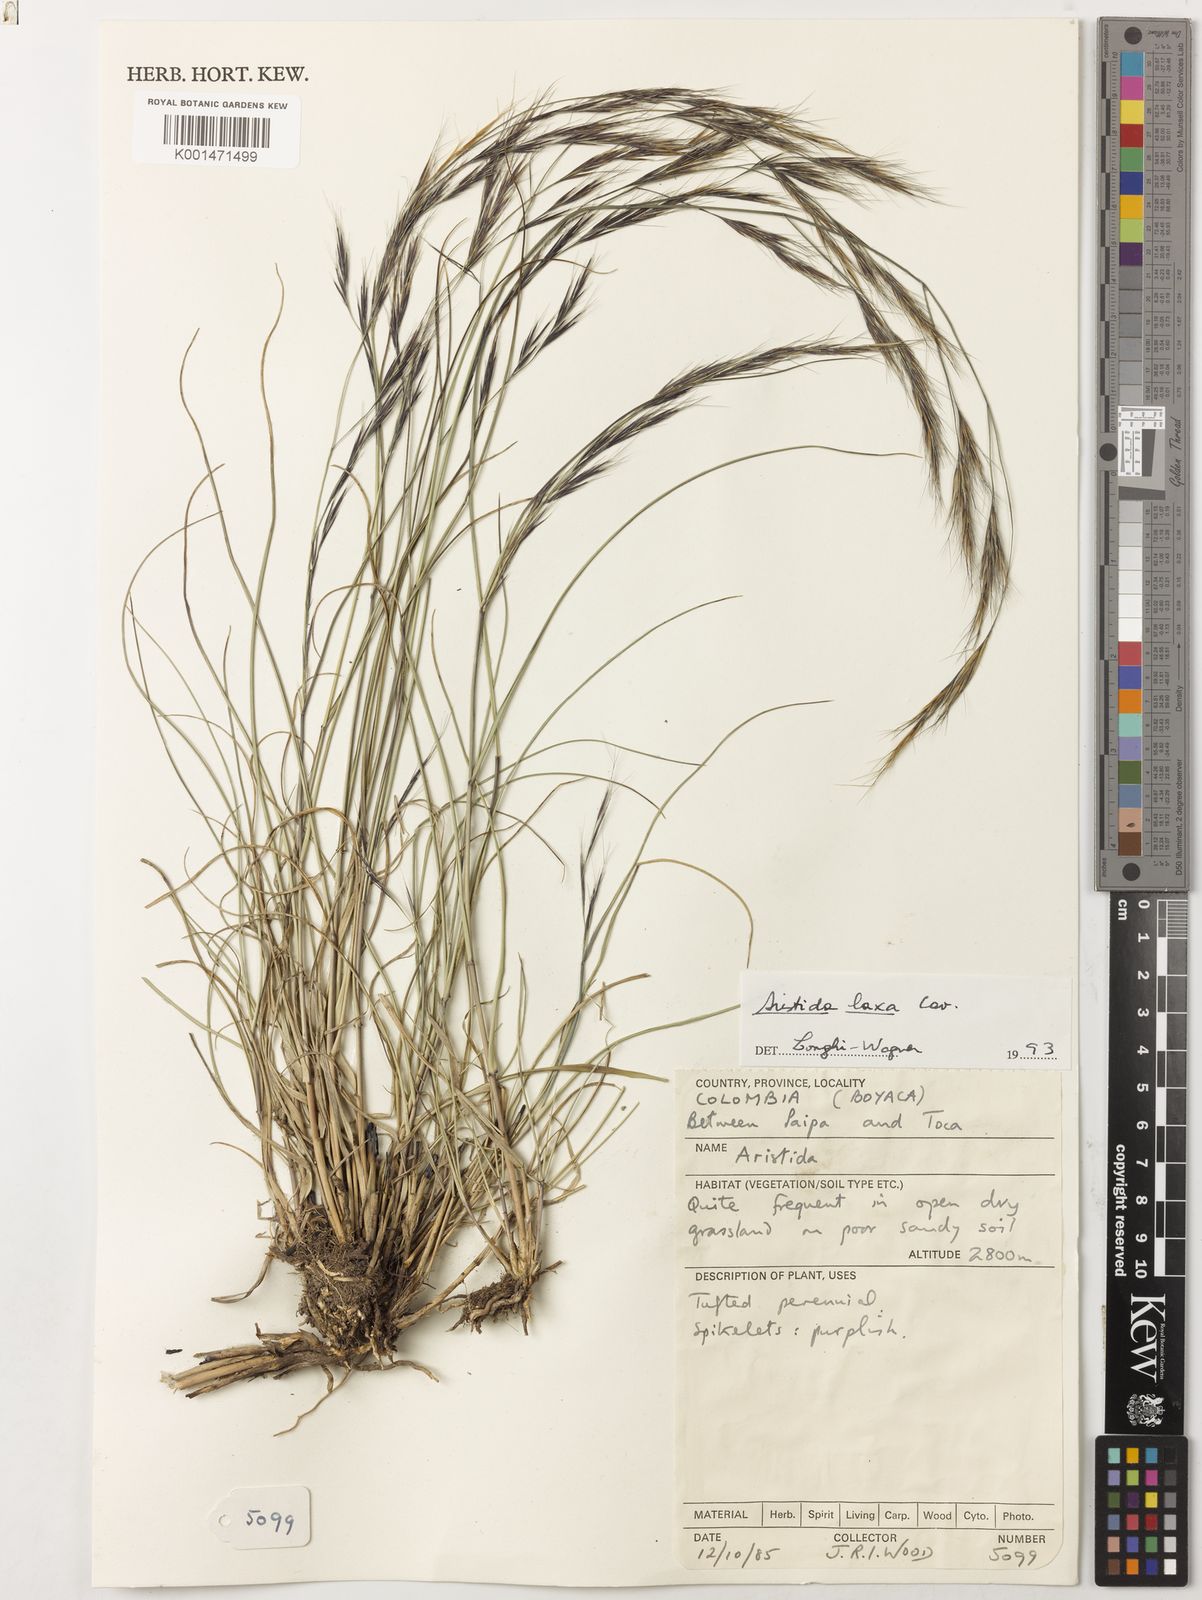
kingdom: Plantae
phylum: Tracheophyta
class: Liliopsida
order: Poales
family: Poaceae
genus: Aristida
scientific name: Aristida laxa
